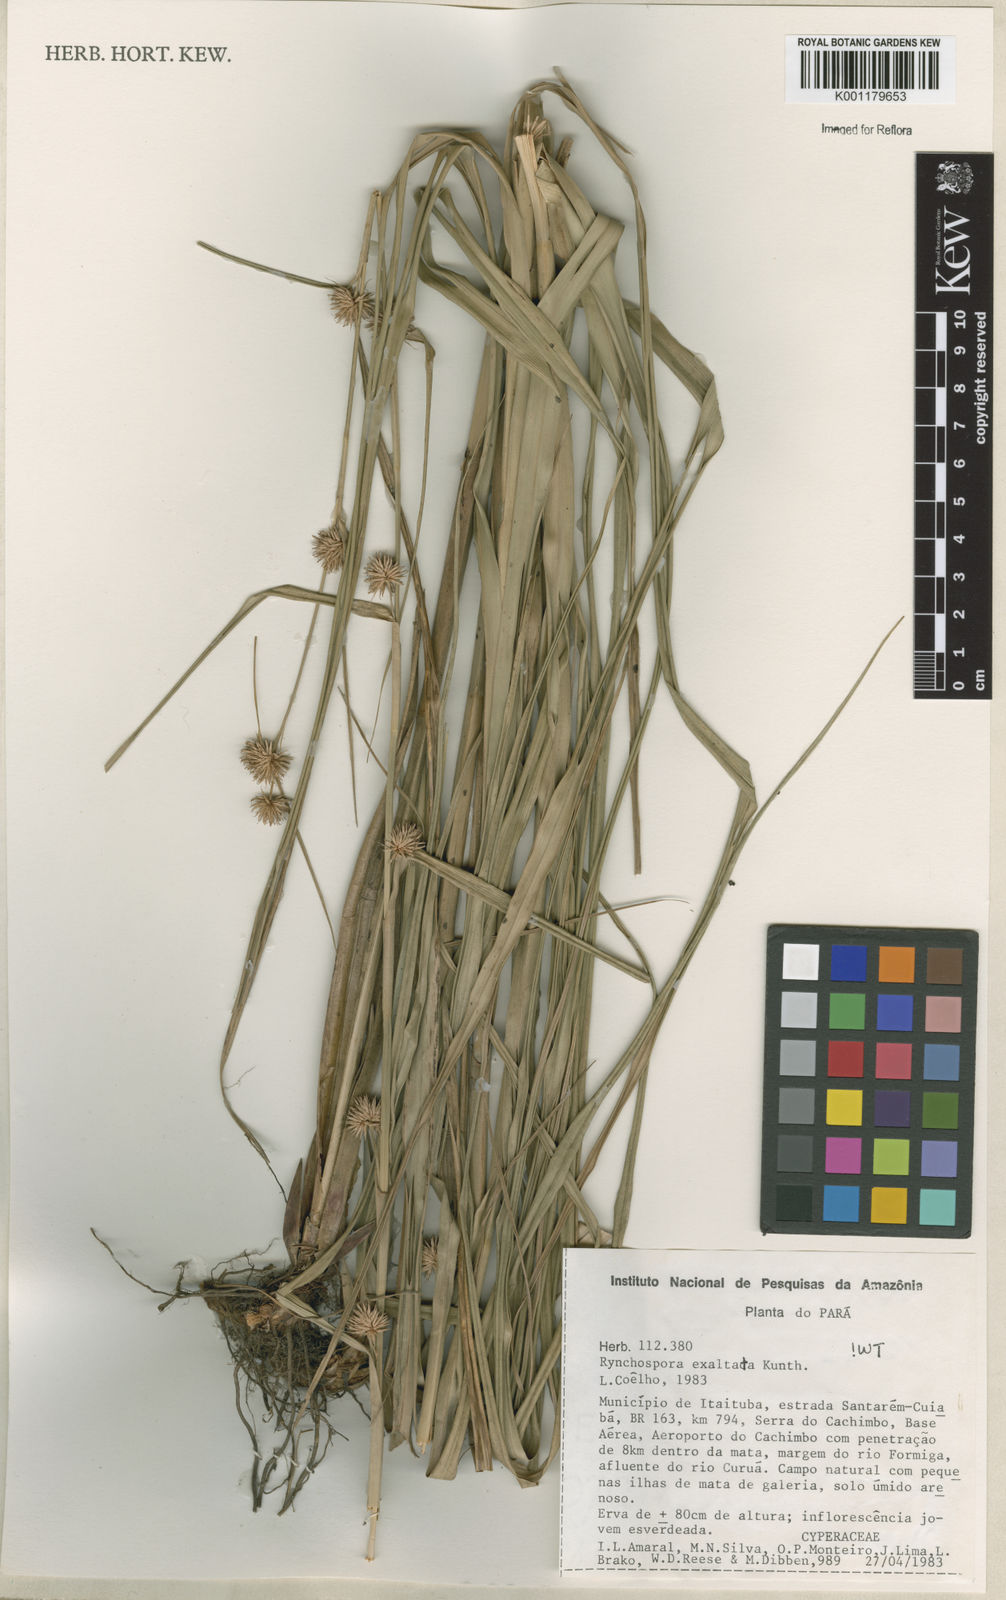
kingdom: Plantae
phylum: Tracheophyta
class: Liliopsida
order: Poales
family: Cyperaceae
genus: Rhynchospora
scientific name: Rhynchospora exaltata
